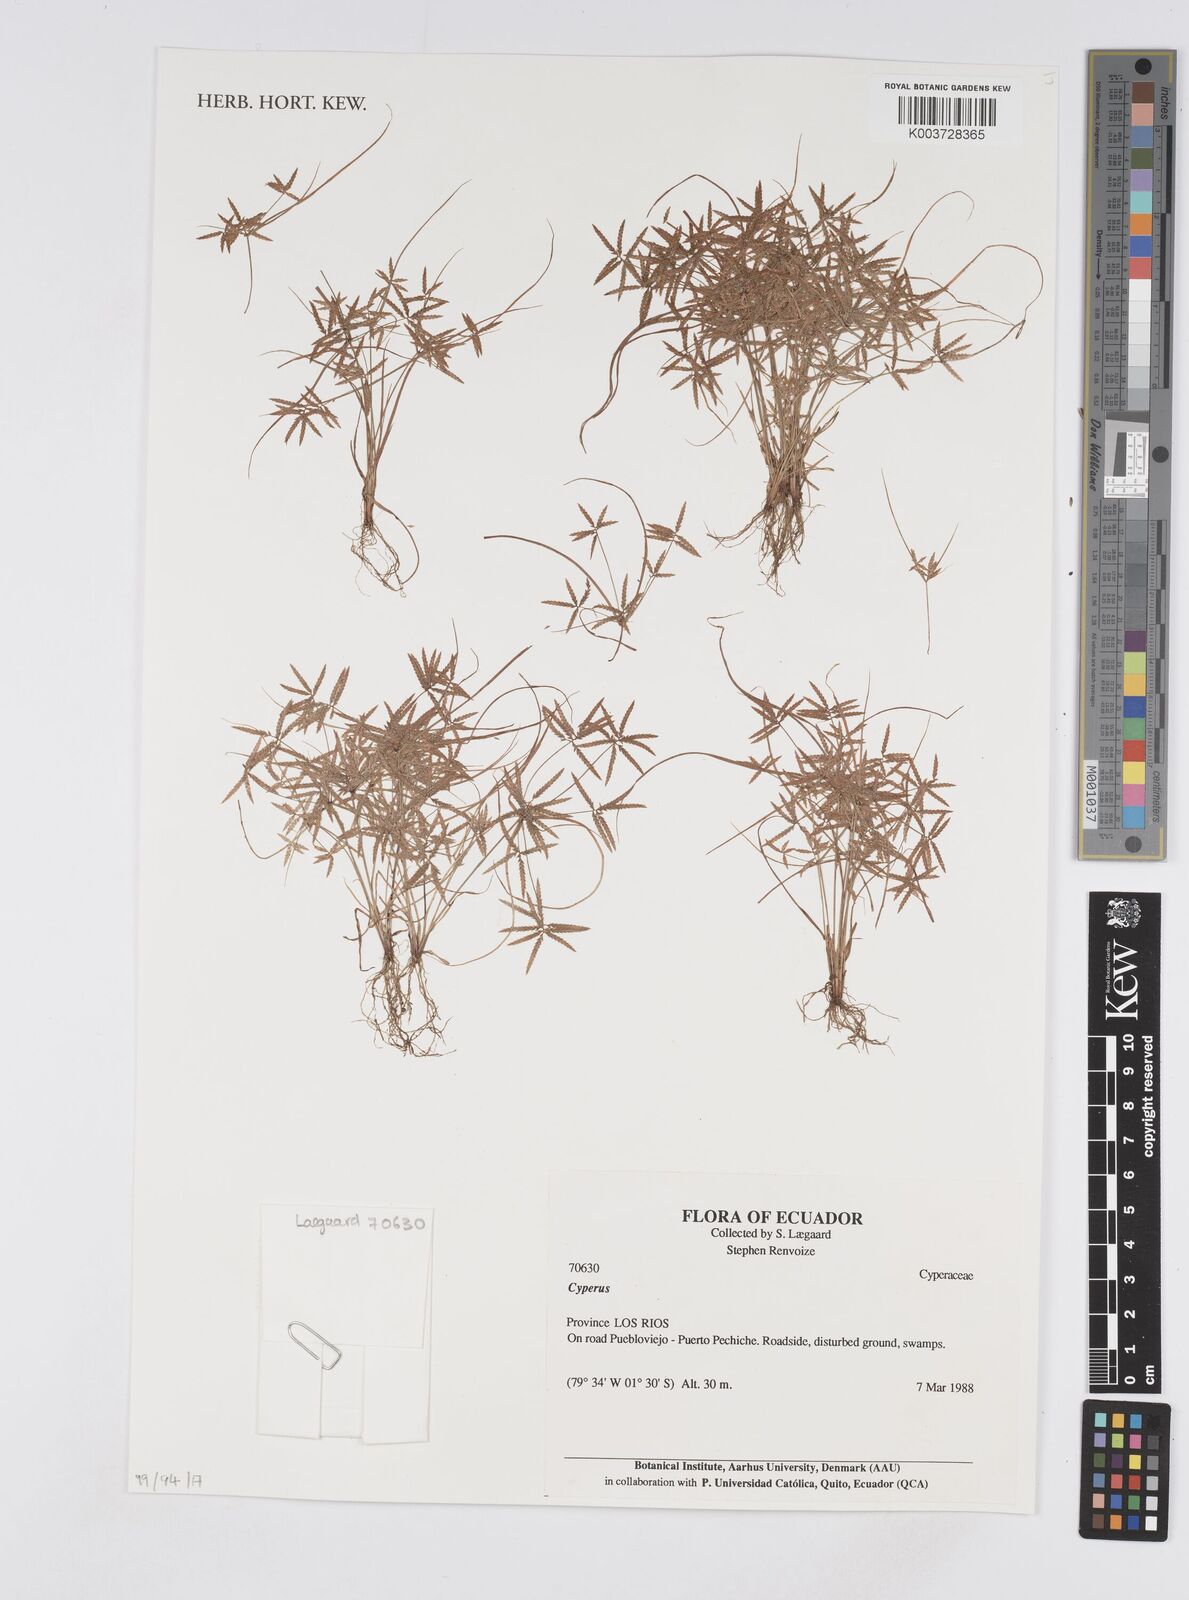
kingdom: Plantae
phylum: Tracheophyta
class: Liliopsida
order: Poales
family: Cyperaceae
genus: Cyperus
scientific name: Cyperus
